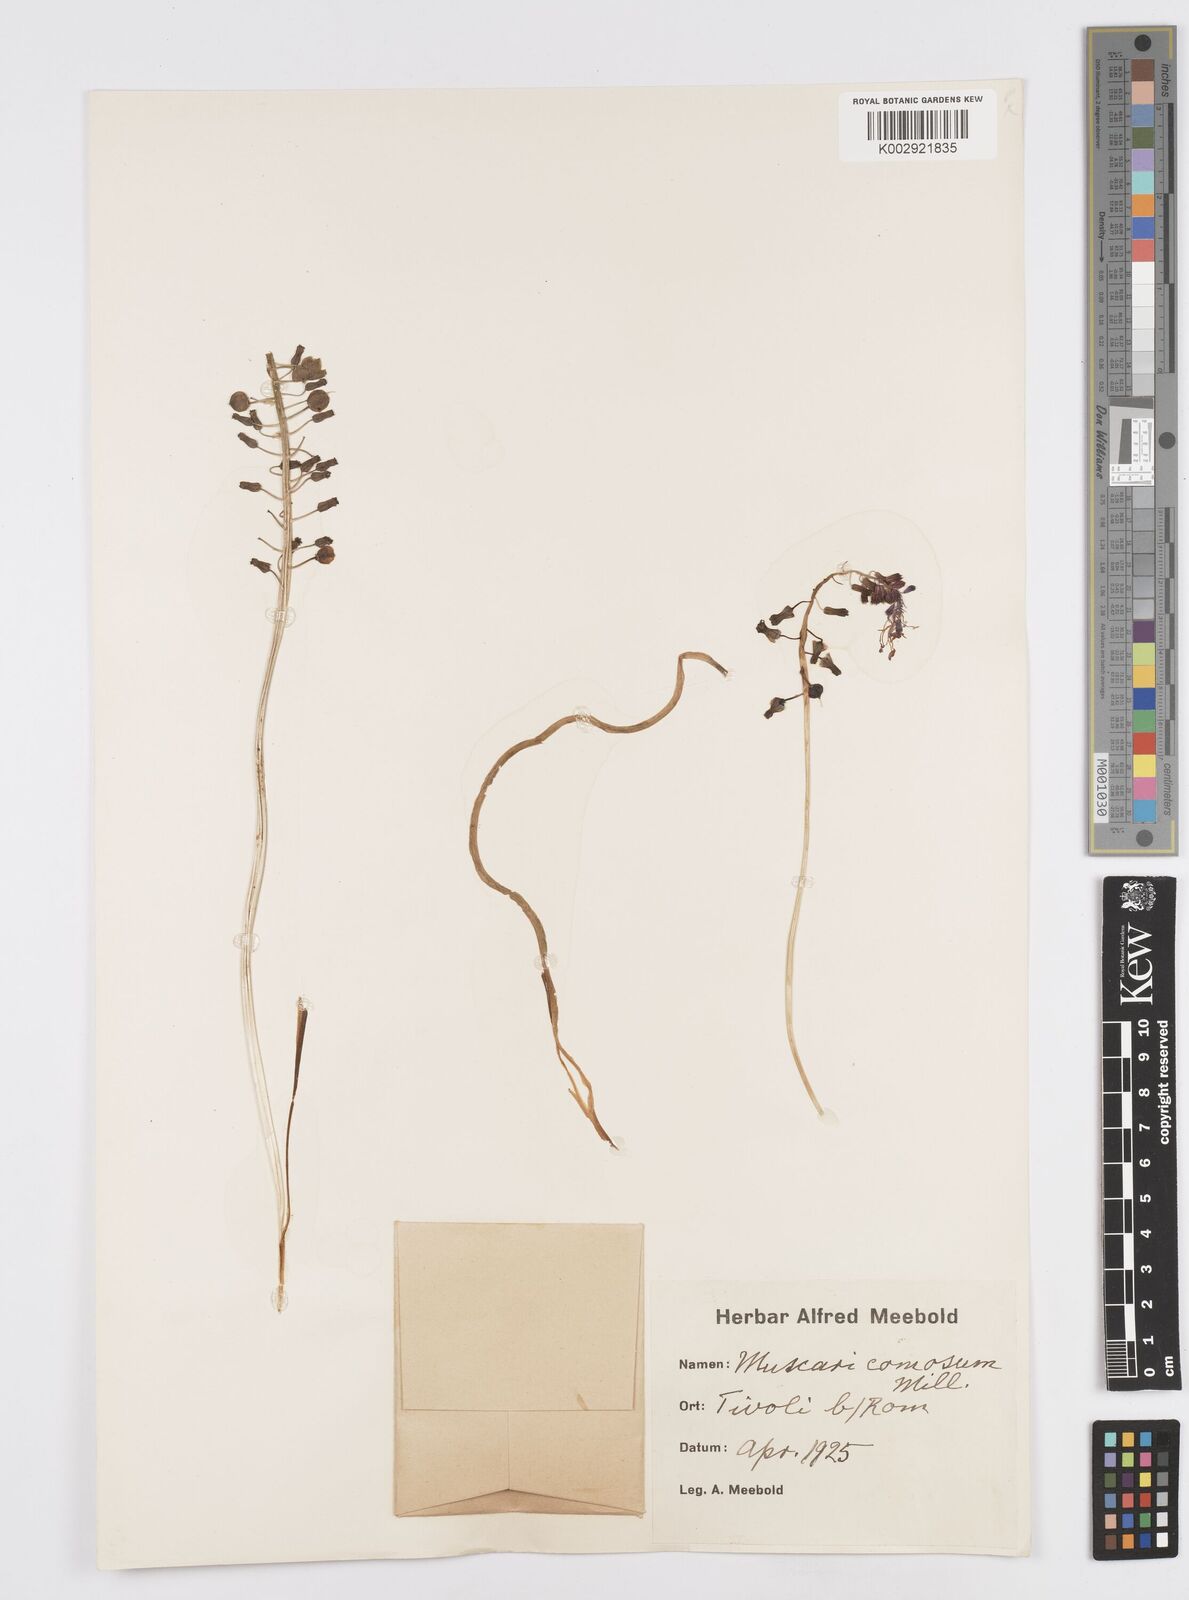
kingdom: Plantae
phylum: Tracheophyta
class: Liliopsida
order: Asparagales
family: Asparagaceae
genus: Muscari
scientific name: Muscari comosum
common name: Tassel hyacinth
